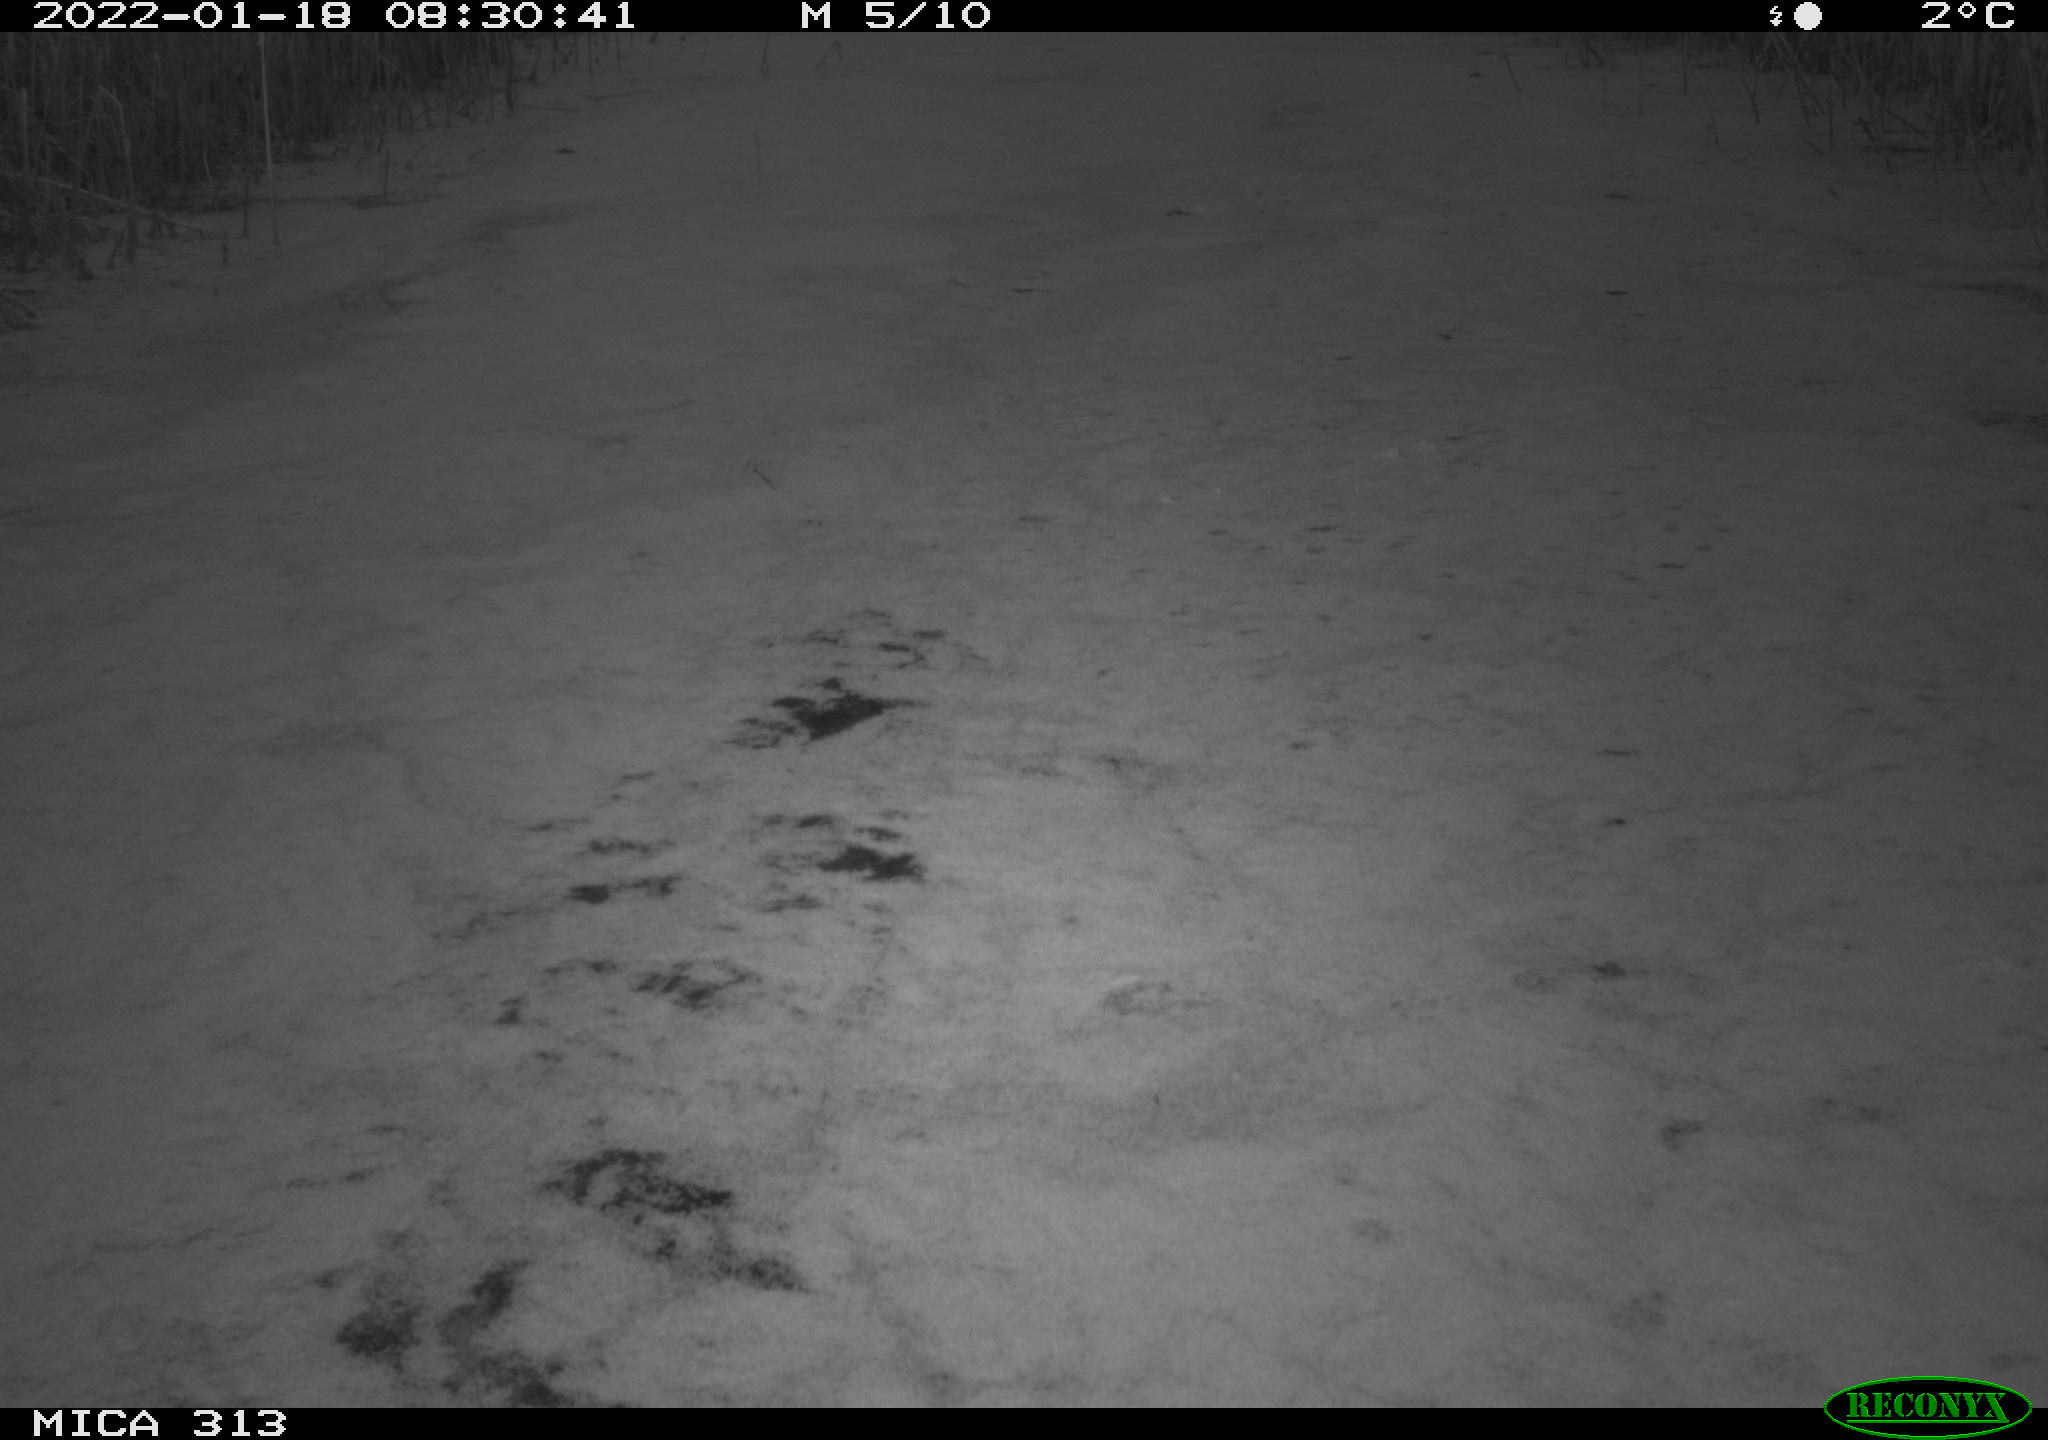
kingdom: Animalia
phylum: Chordata
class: Aves
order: Gruiformes
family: Rallidae
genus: Gallinula
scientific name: Gallinula chloropus
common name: Common moorhen
